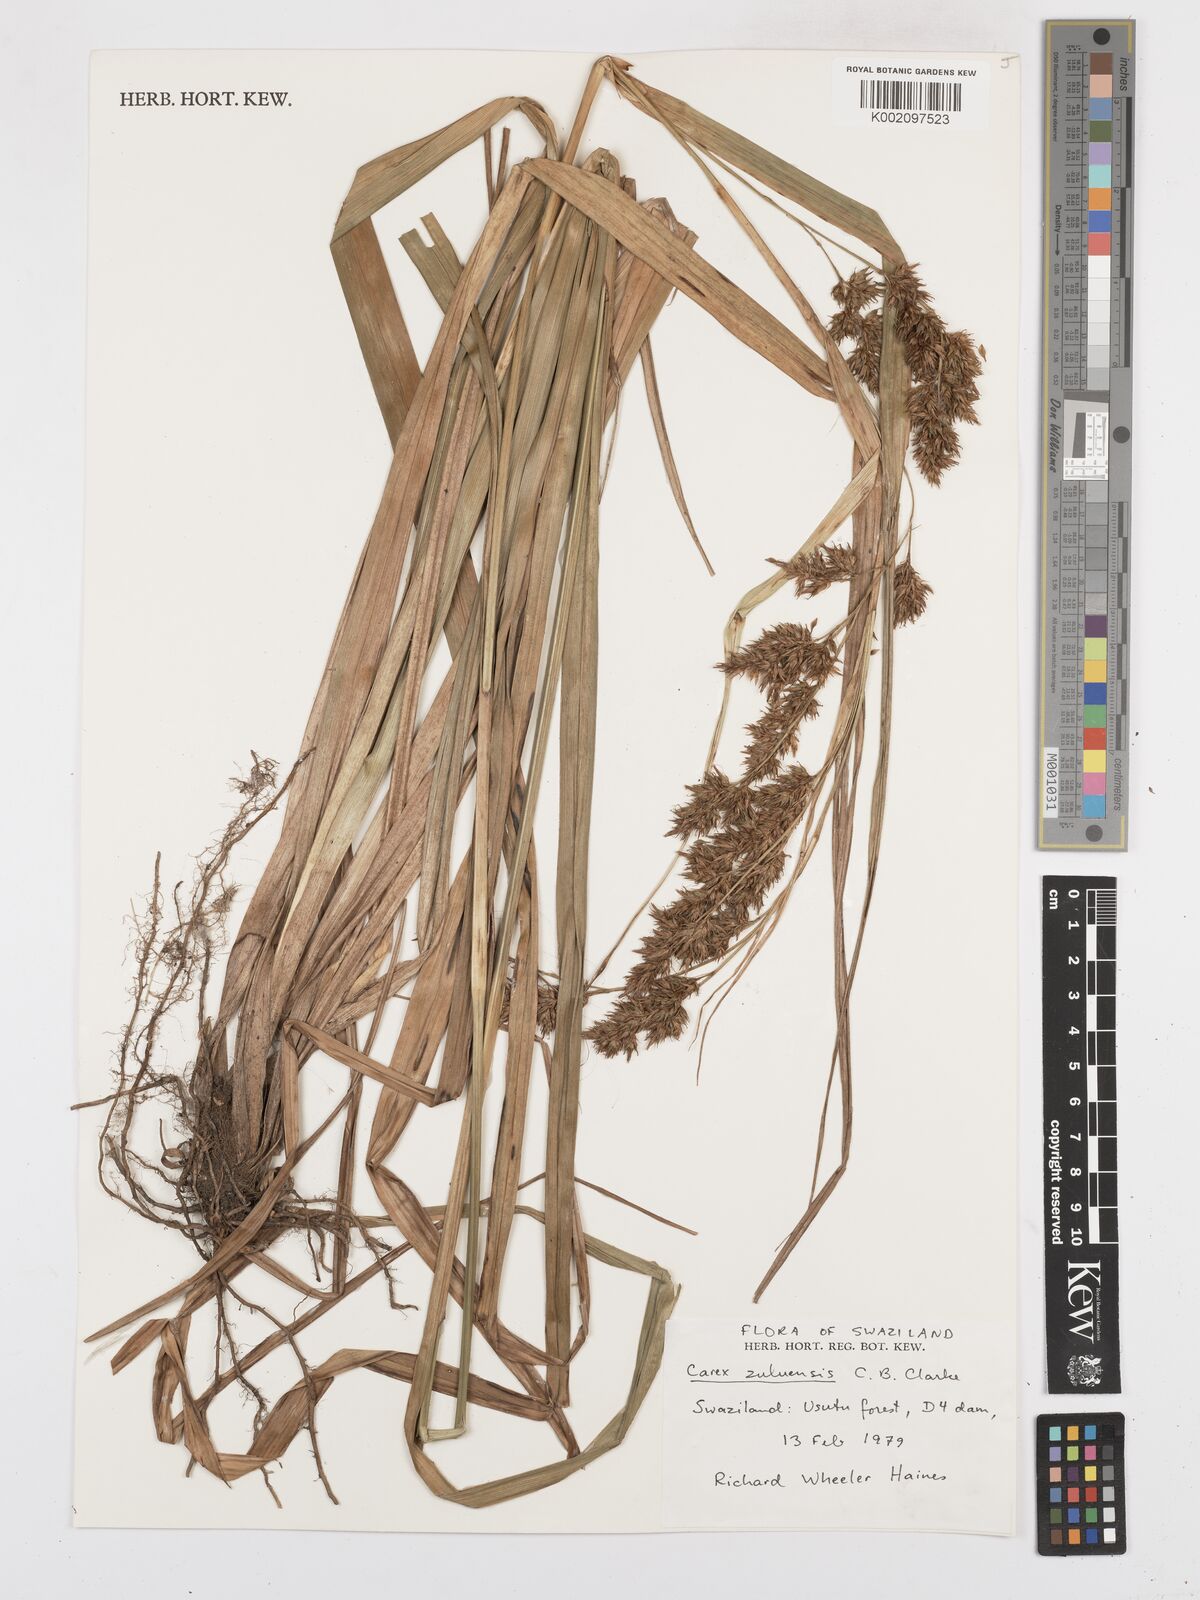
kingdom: Plantae
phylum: Tracheophyta
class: Liliopsida
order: Poales
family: Cyperaceae
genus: Carex
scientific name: Carex steudneri
